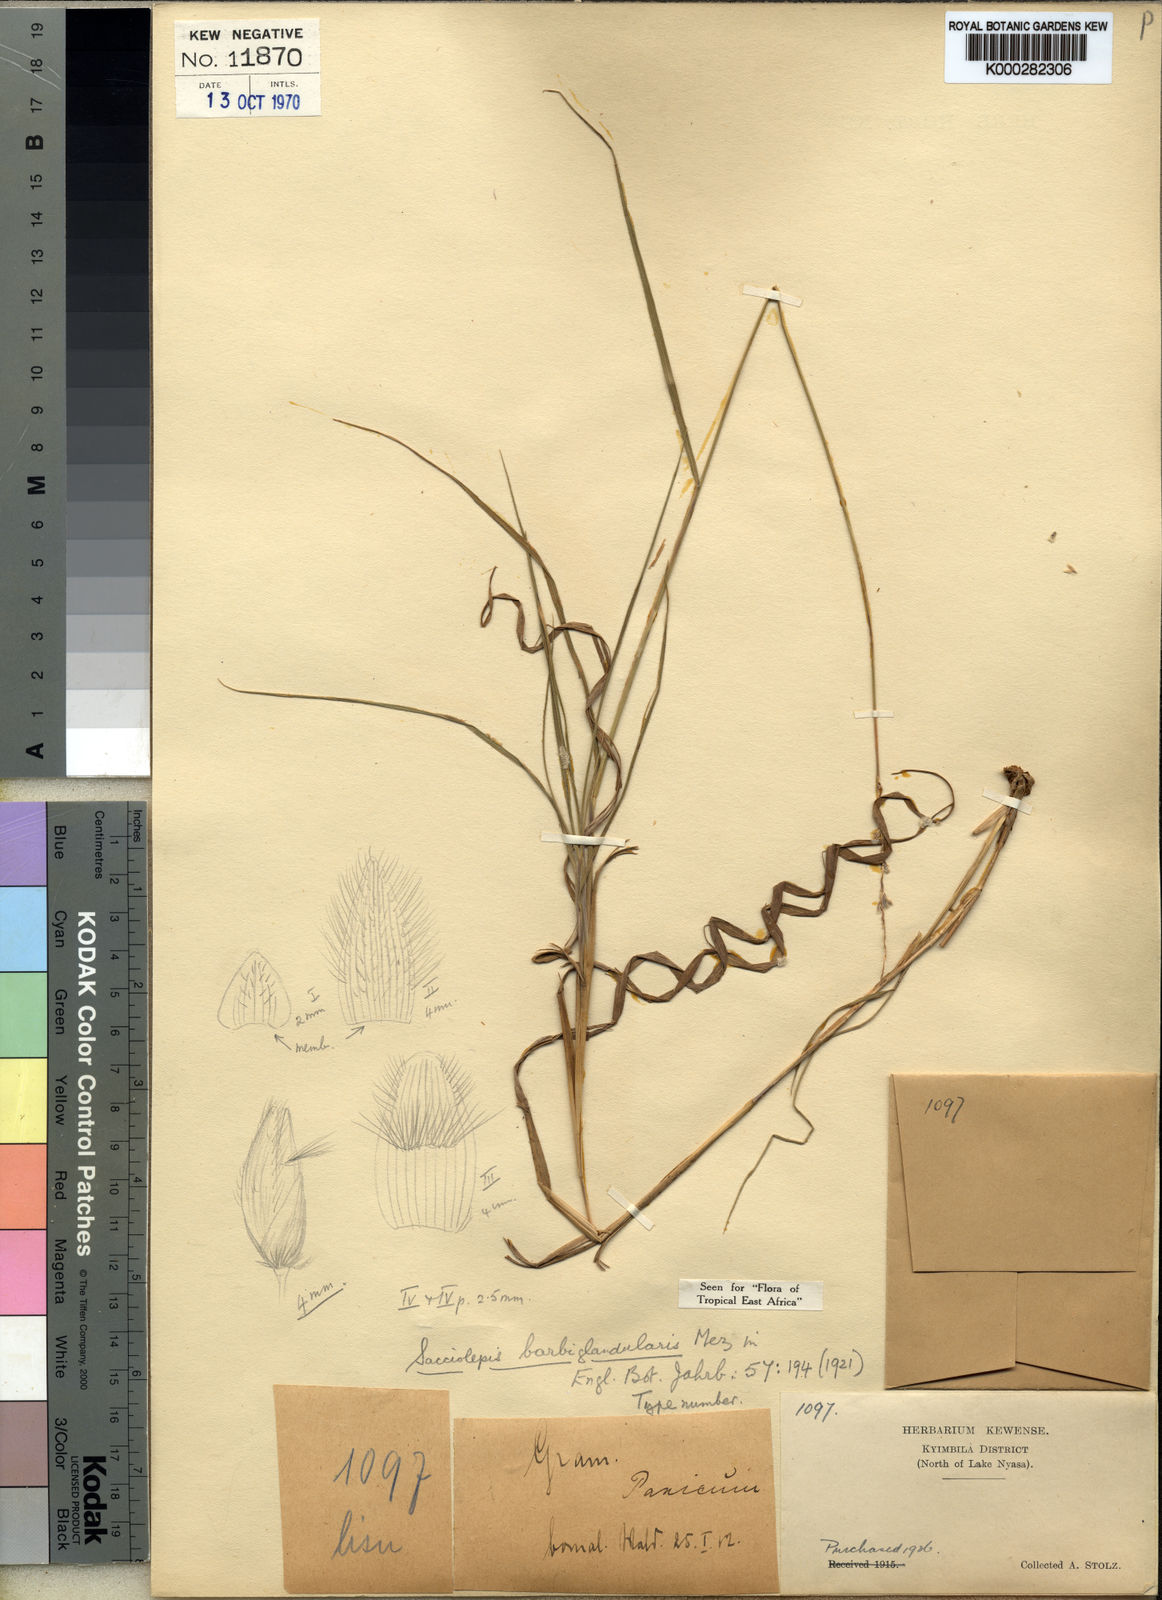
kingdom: Plantae
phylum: Tracheophyta
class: Liliopsida
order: Poales
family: Poaceae
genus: Sacciolepis
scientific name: Sacciolepis transbarbata
